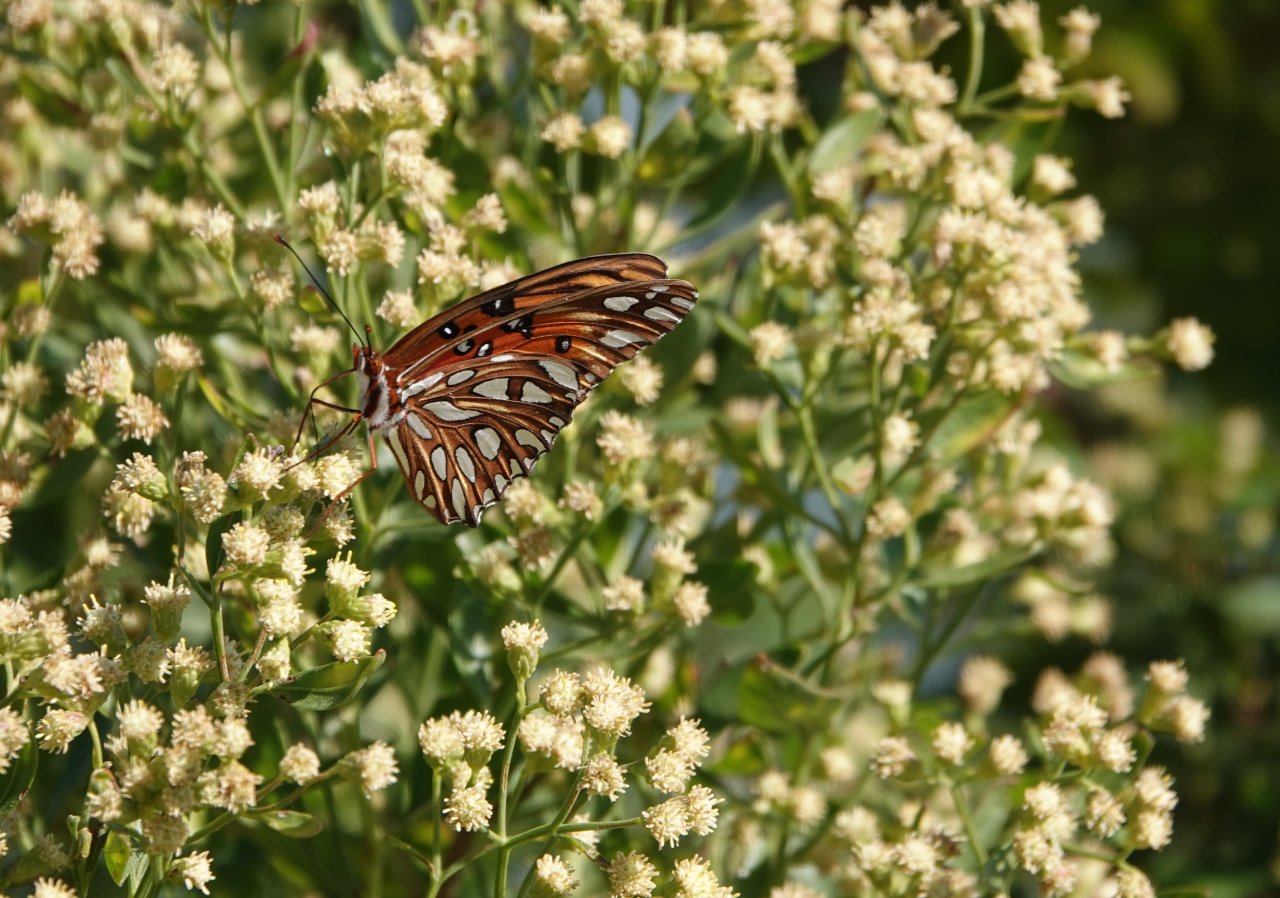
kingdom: Animalia
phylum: Arthropoda
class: Insecta
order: Lepidoptera
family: Nymphalidae
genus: Dione
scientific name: Dione vanillae
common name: Gulf Fritillary
